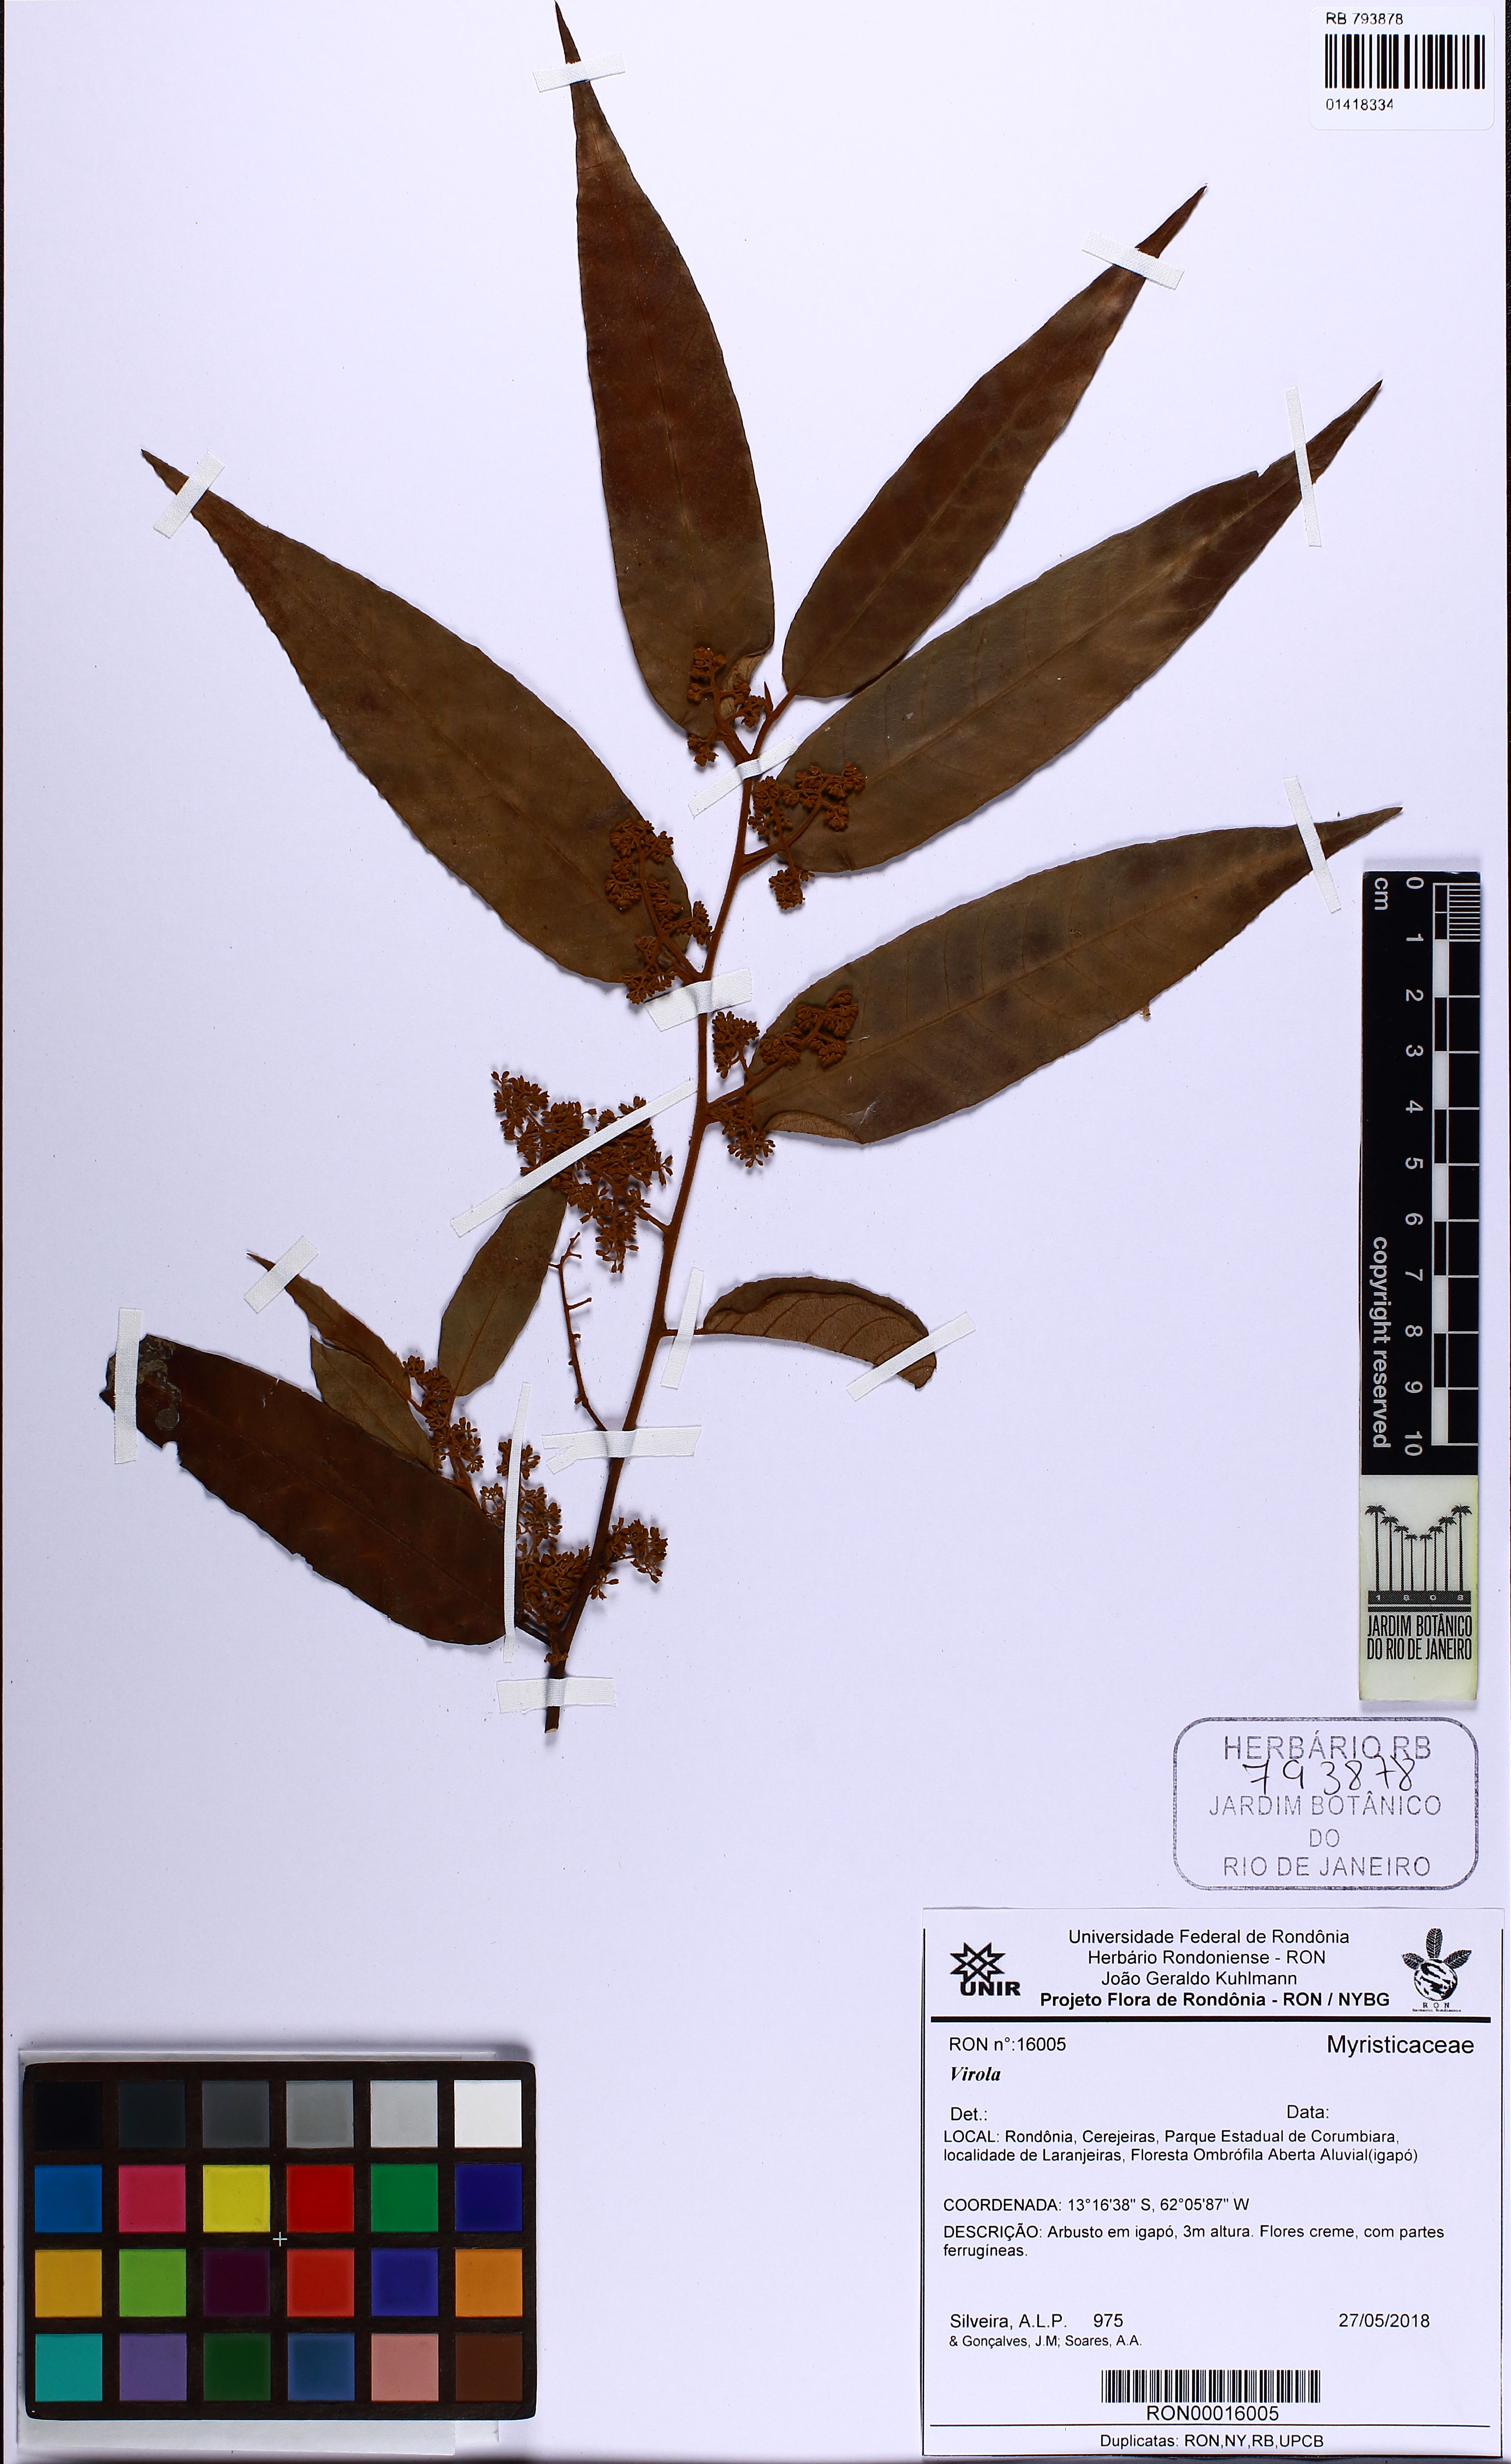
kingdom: Plantae
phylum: Tracheophyta
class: Magnoliopsida
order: Magnoliales
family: Myristicaceae
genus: Virola
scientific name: Virola
